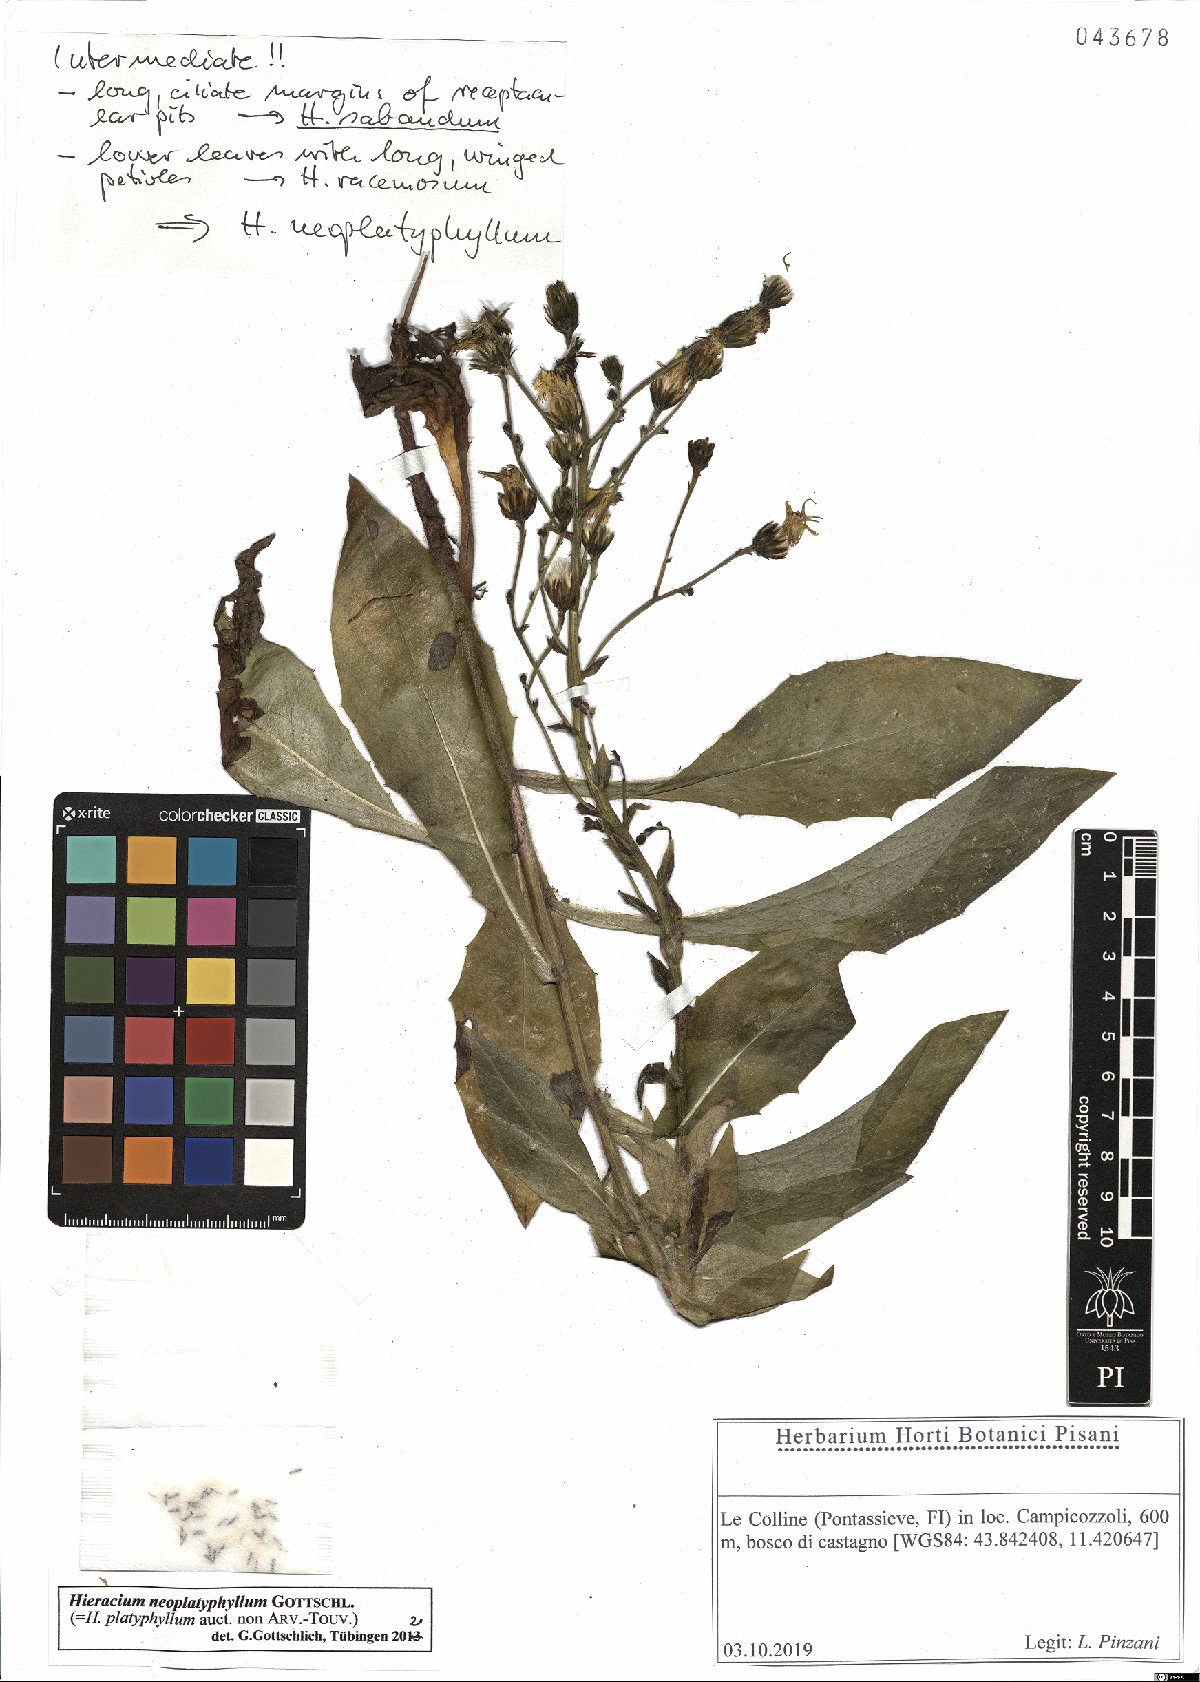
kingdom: Plantae
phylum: Tracheophyta
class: Magnoliopsida
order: Asterales
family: Asteraceae
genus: Hieracium
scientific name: Hieracium neoplatyphyllum
